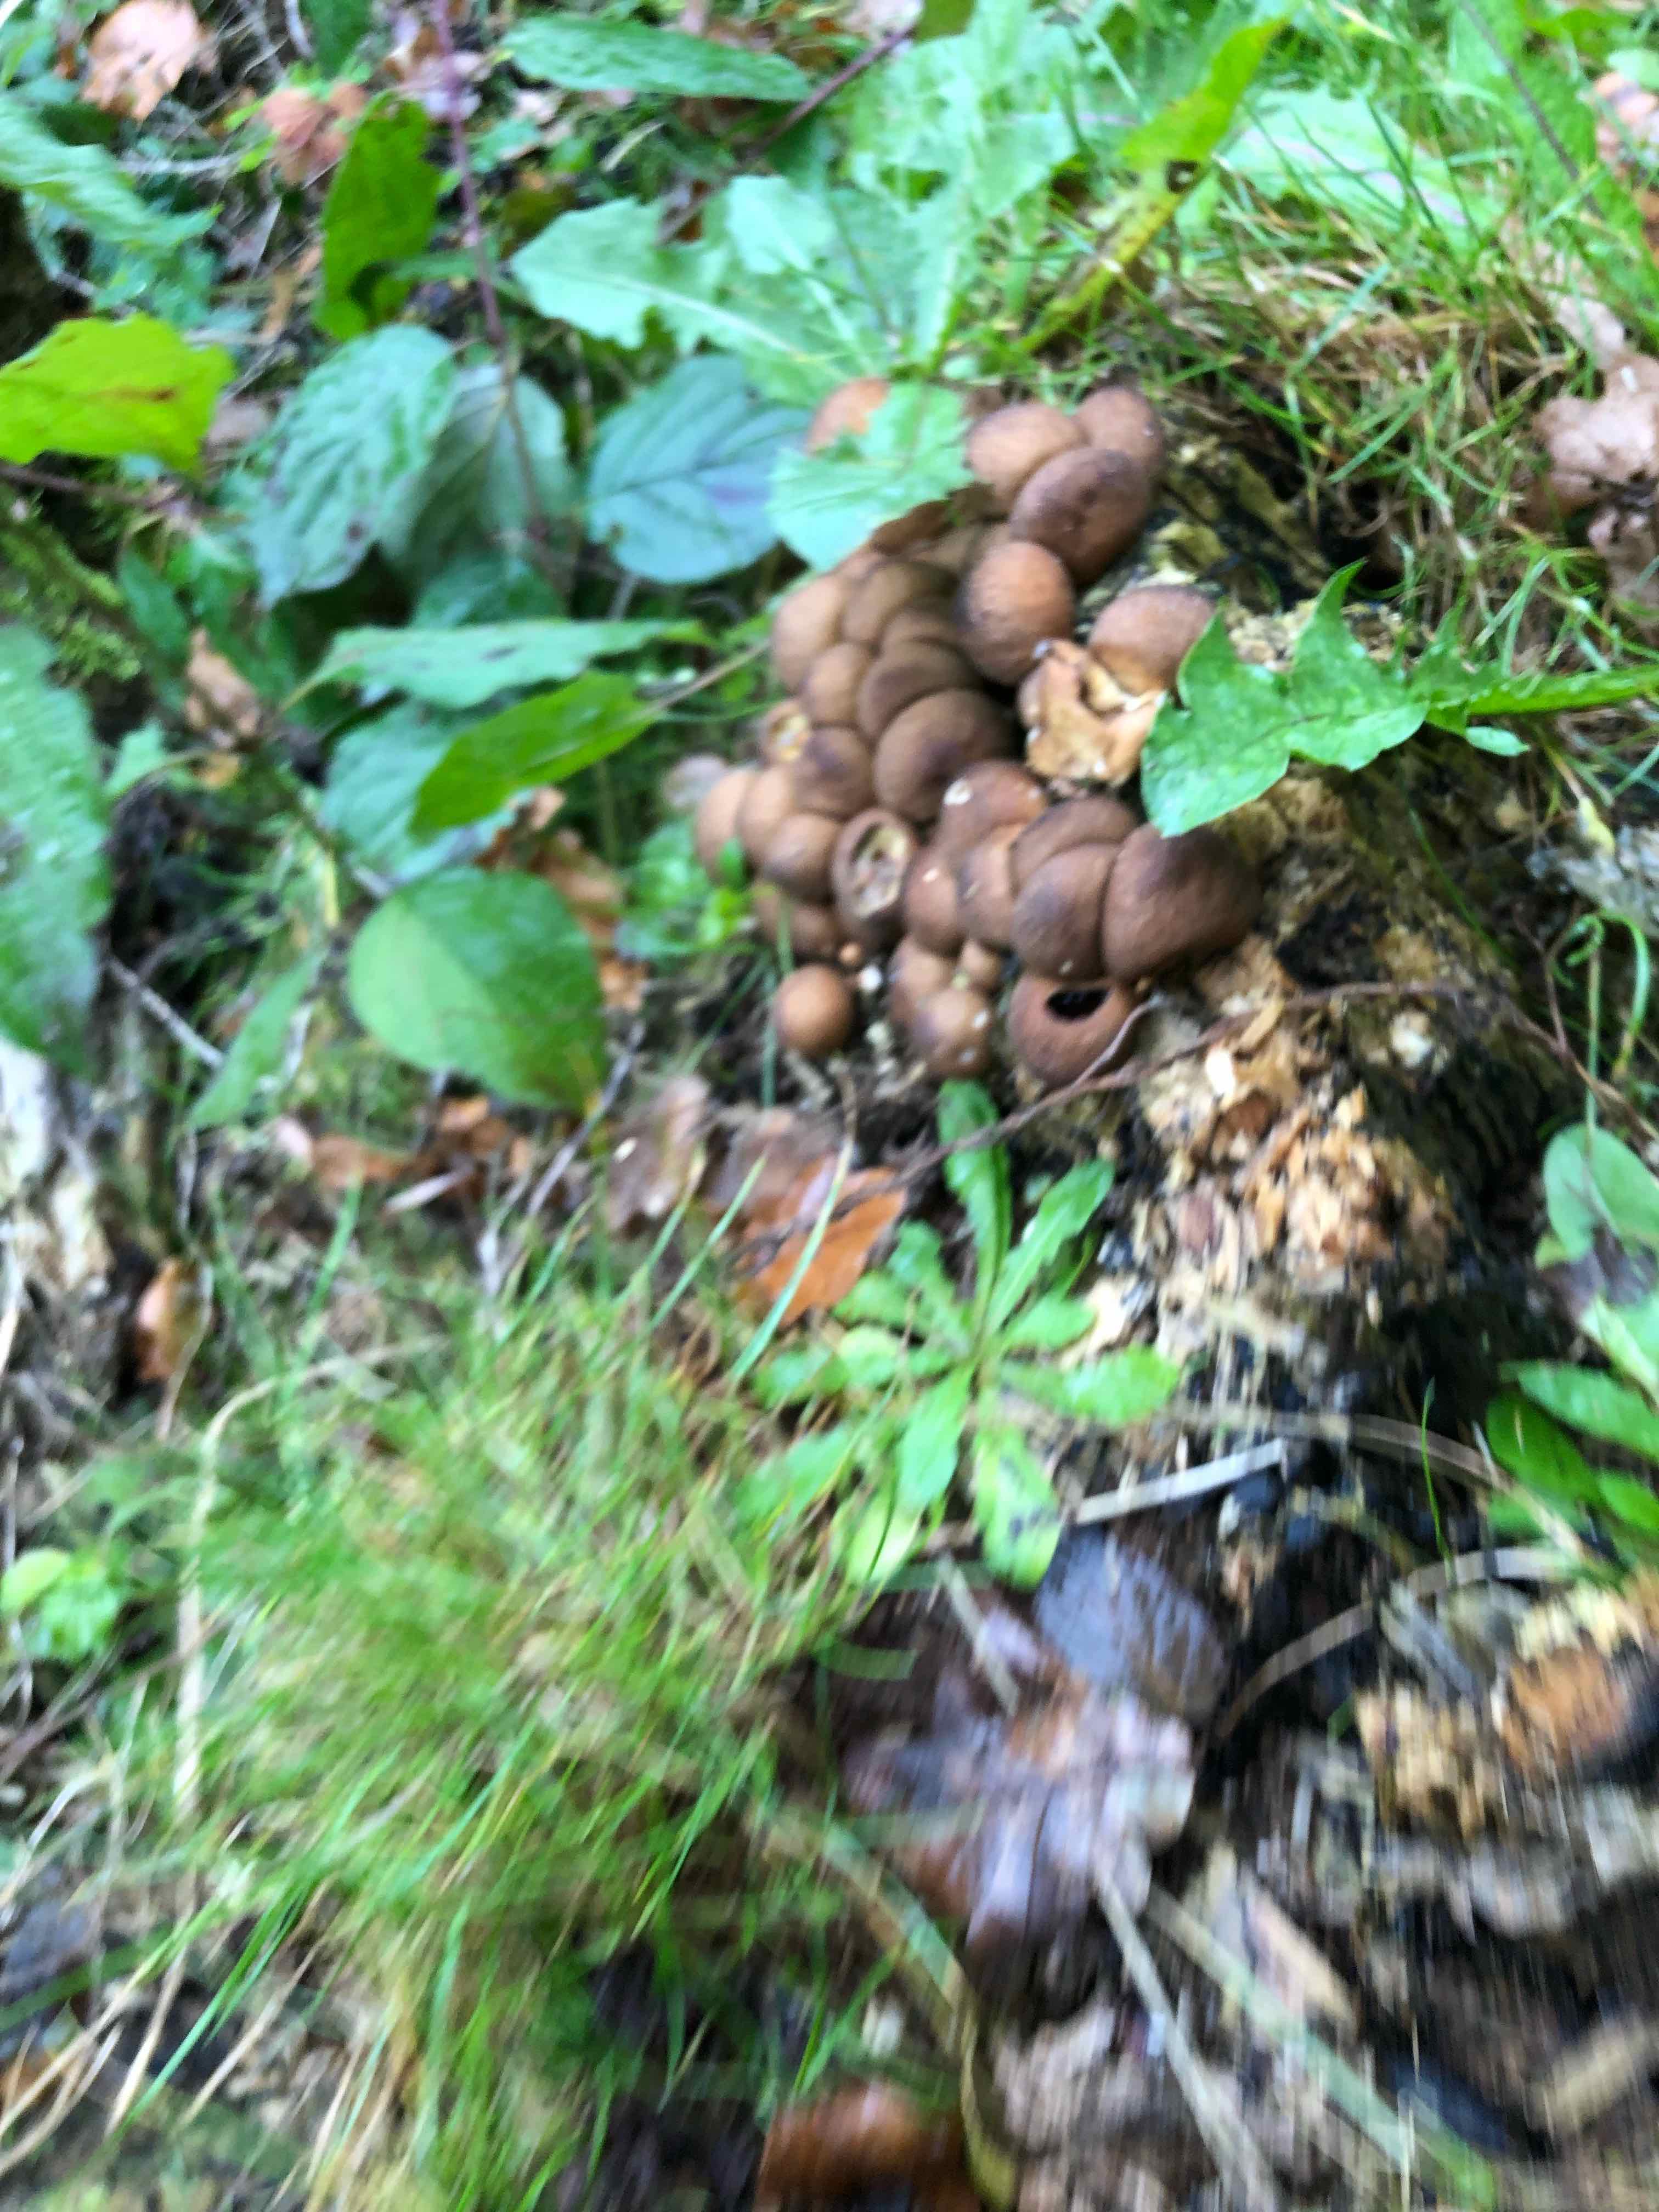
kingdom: Fungi
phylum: Basidiomycota
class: Agaricomycetes
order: Agaricales
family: Lycoperdaceae
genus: Apioperdon
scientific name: Apioperdon pyriforme
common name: pære-støvbold
